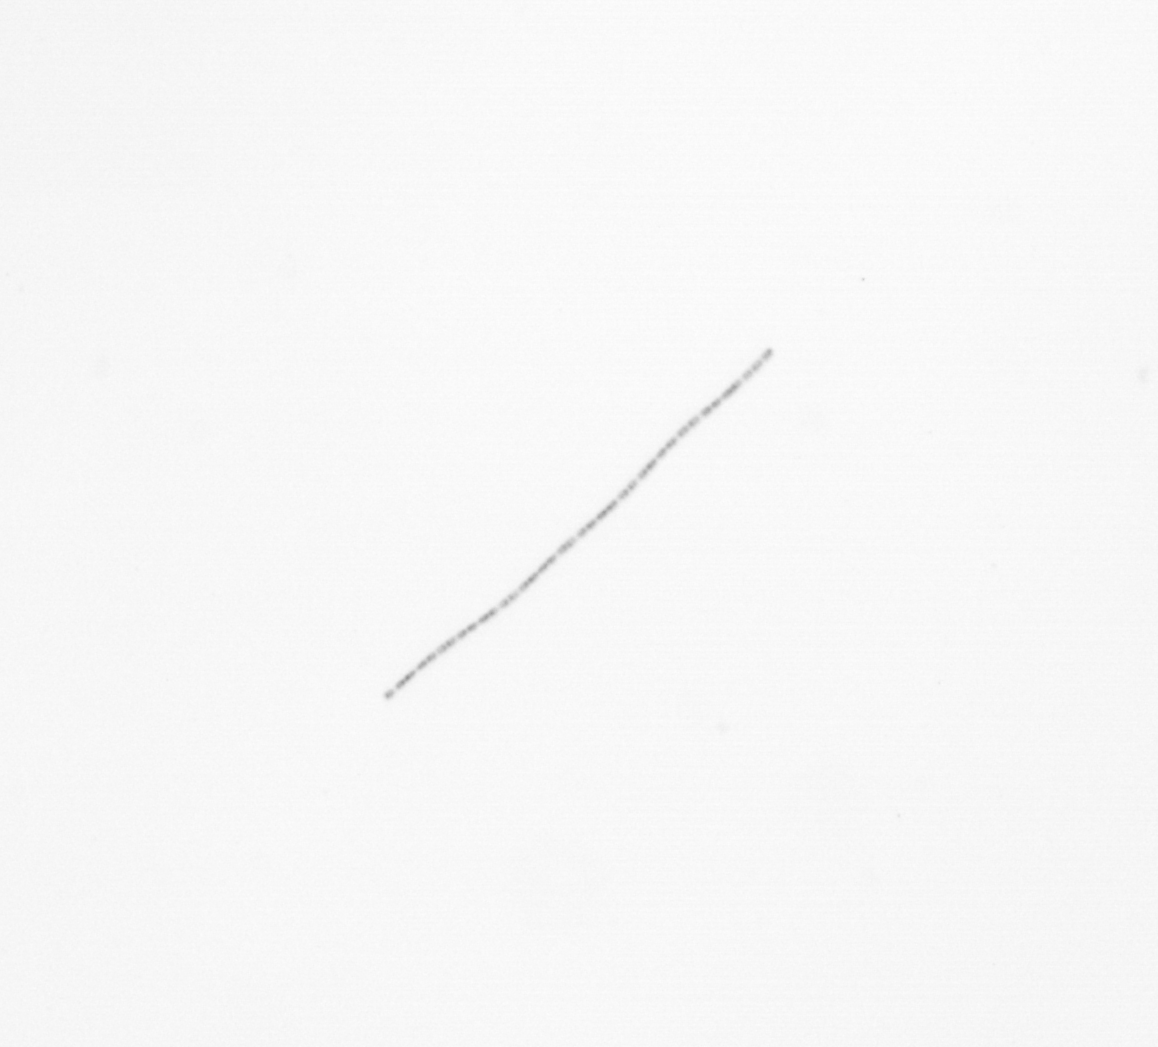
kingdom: Chromista
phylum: Ochrophyta
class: Bacillariophyceae
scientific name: Bacillariophyceae
